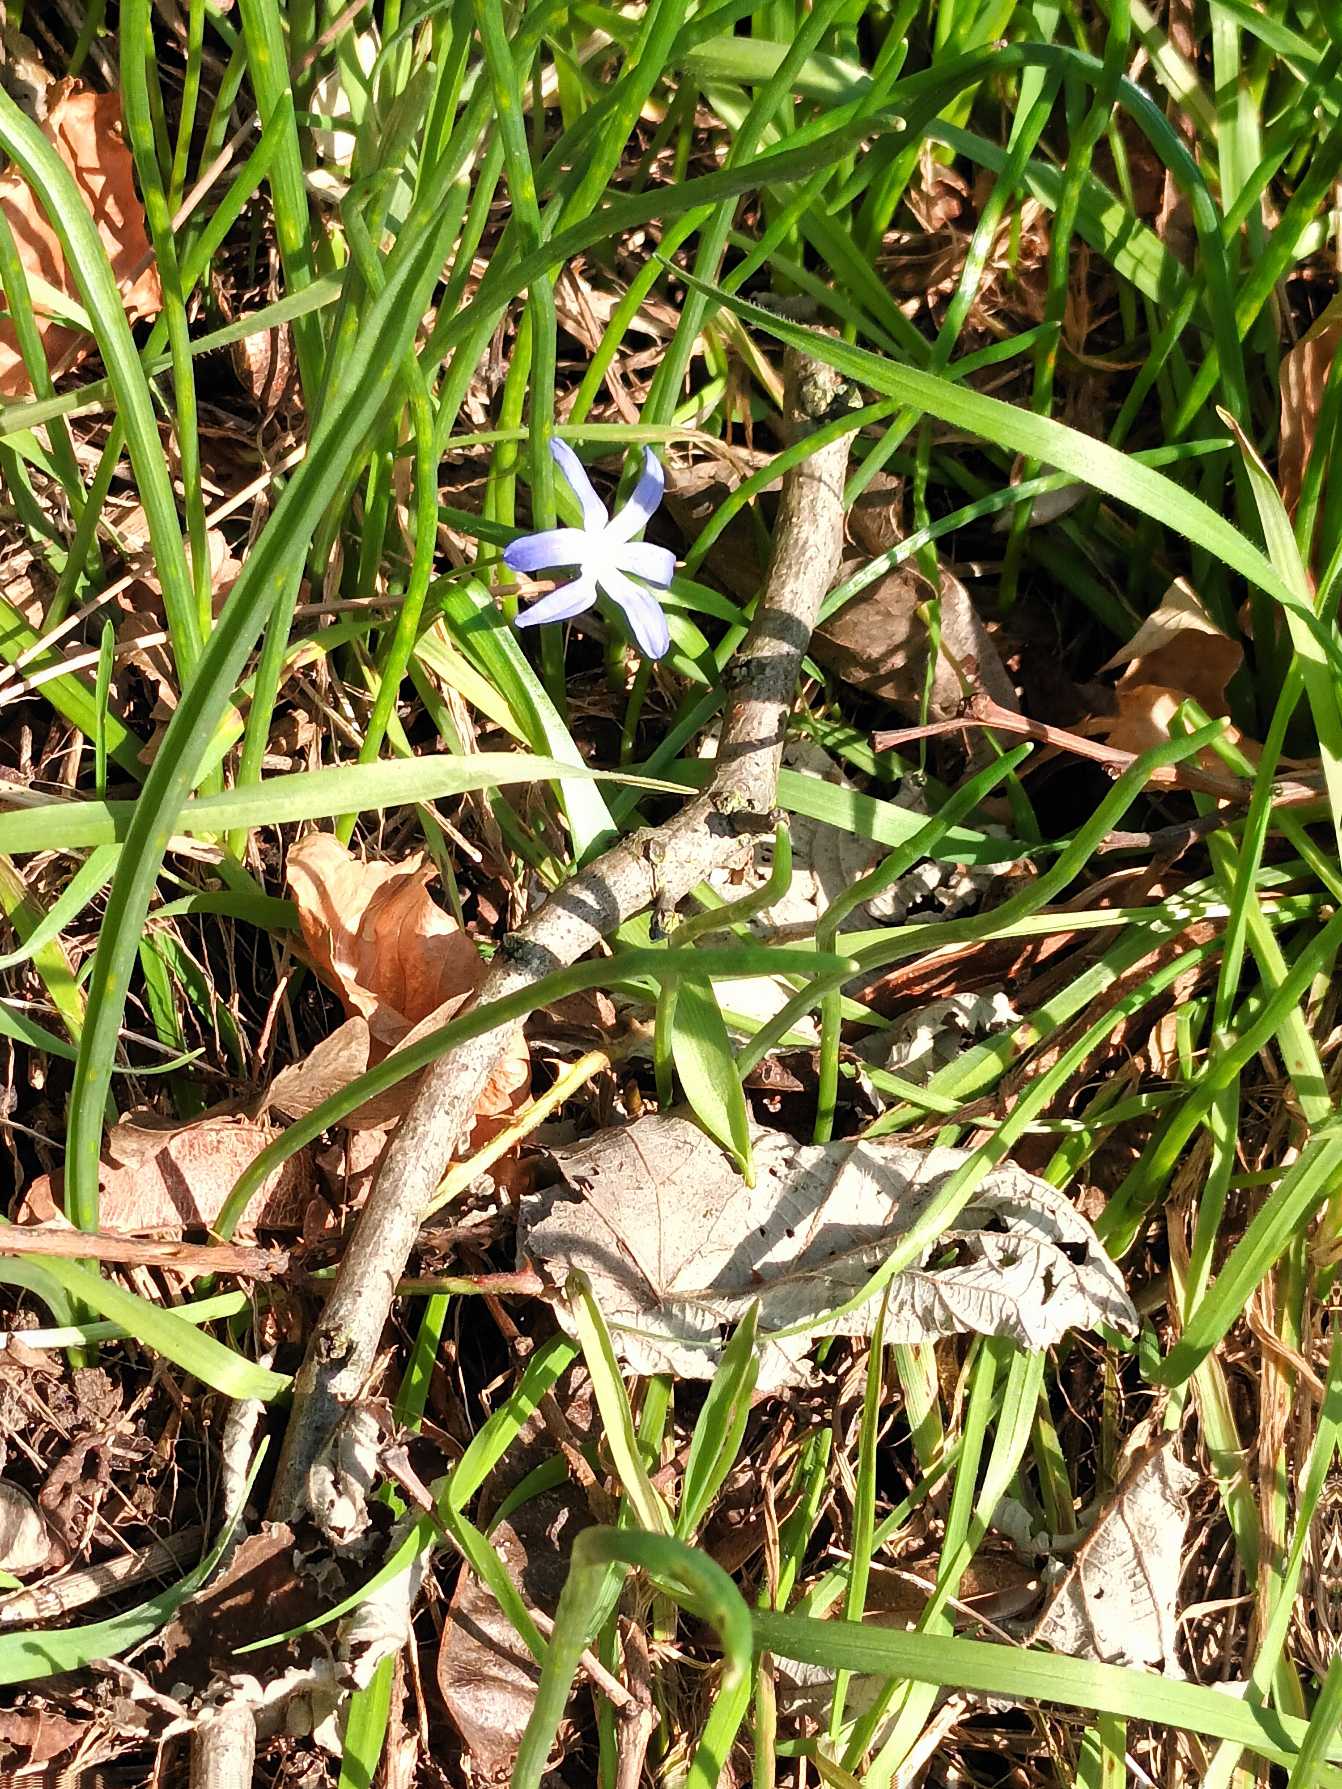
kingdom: Plantae
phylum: Tracheophyta
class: Liliopsida
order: Asparagales
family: Asparagaceae
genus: Scilla
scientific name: Scilla
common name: Skilla (Scilla-slægten)
